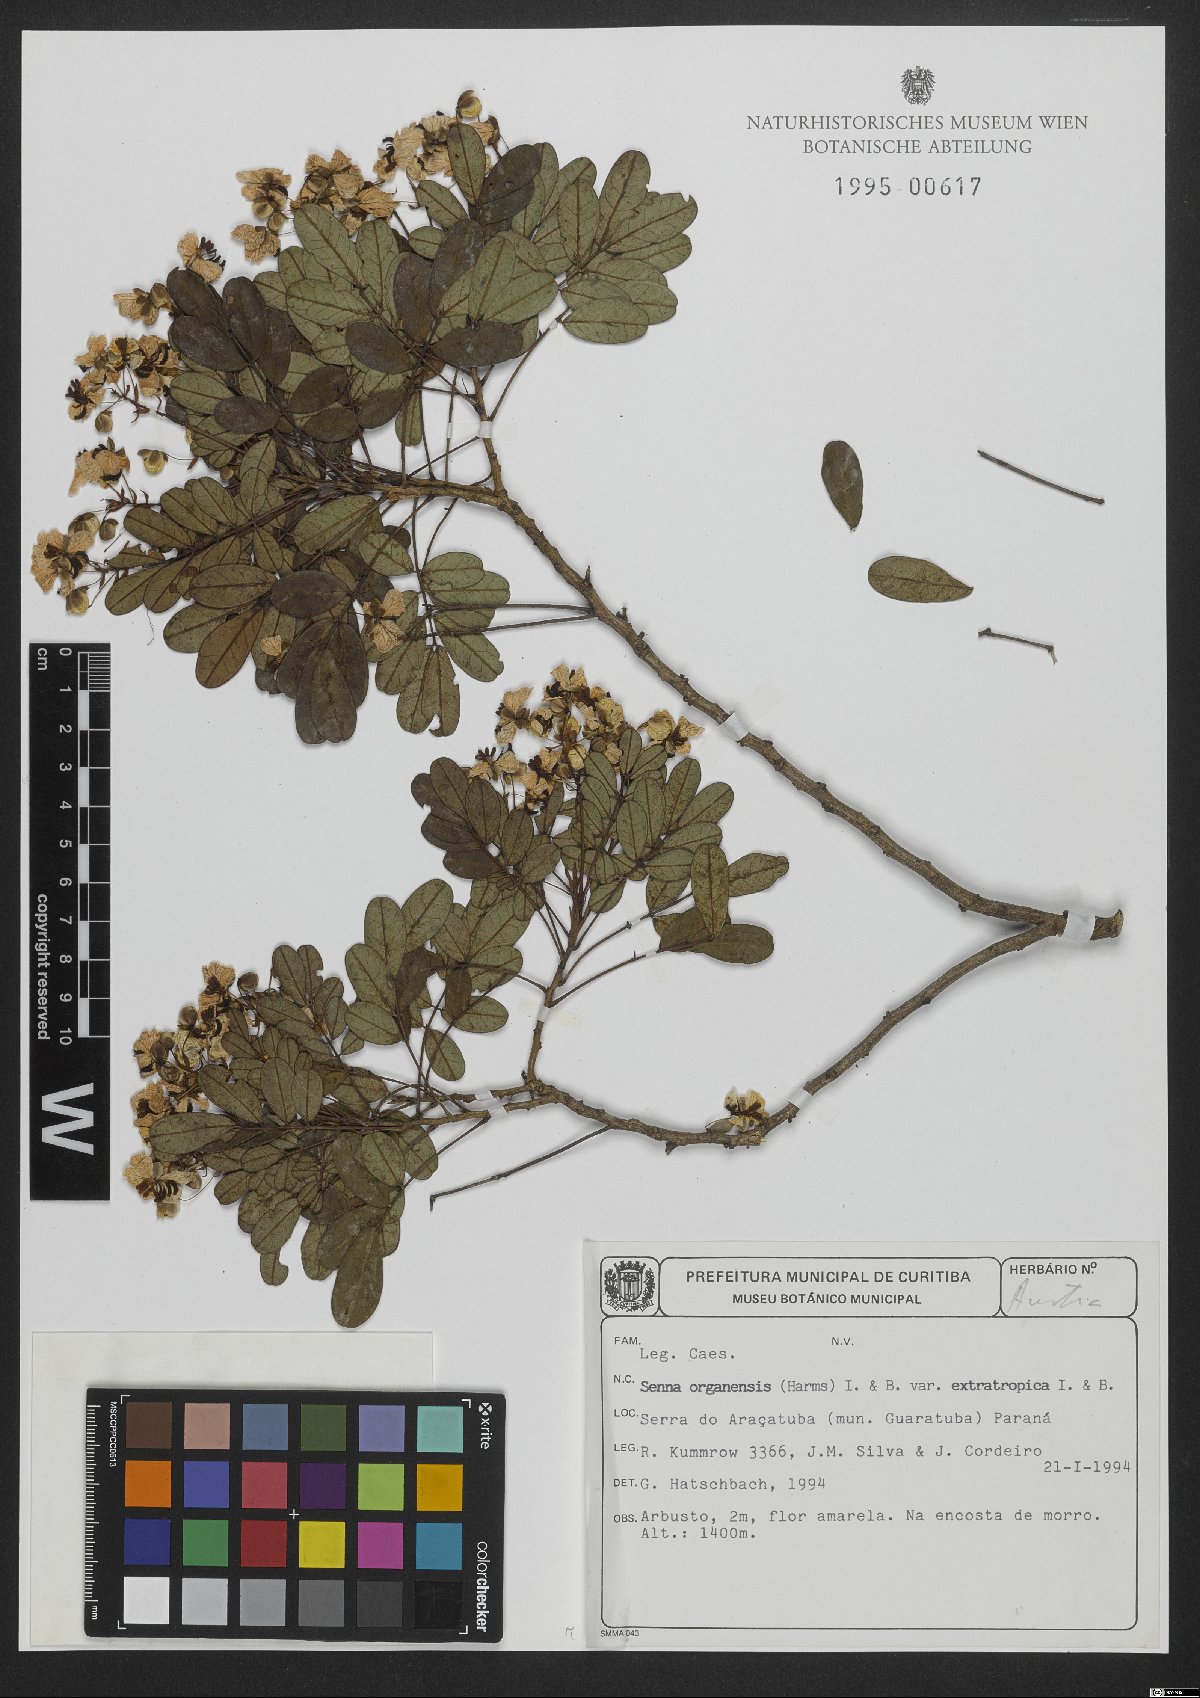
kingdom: Plantae
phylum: Tracheophyta
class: Magnoliopsida
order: Fabales
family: Fabaceae
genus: Senna
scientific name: Senna organensis
